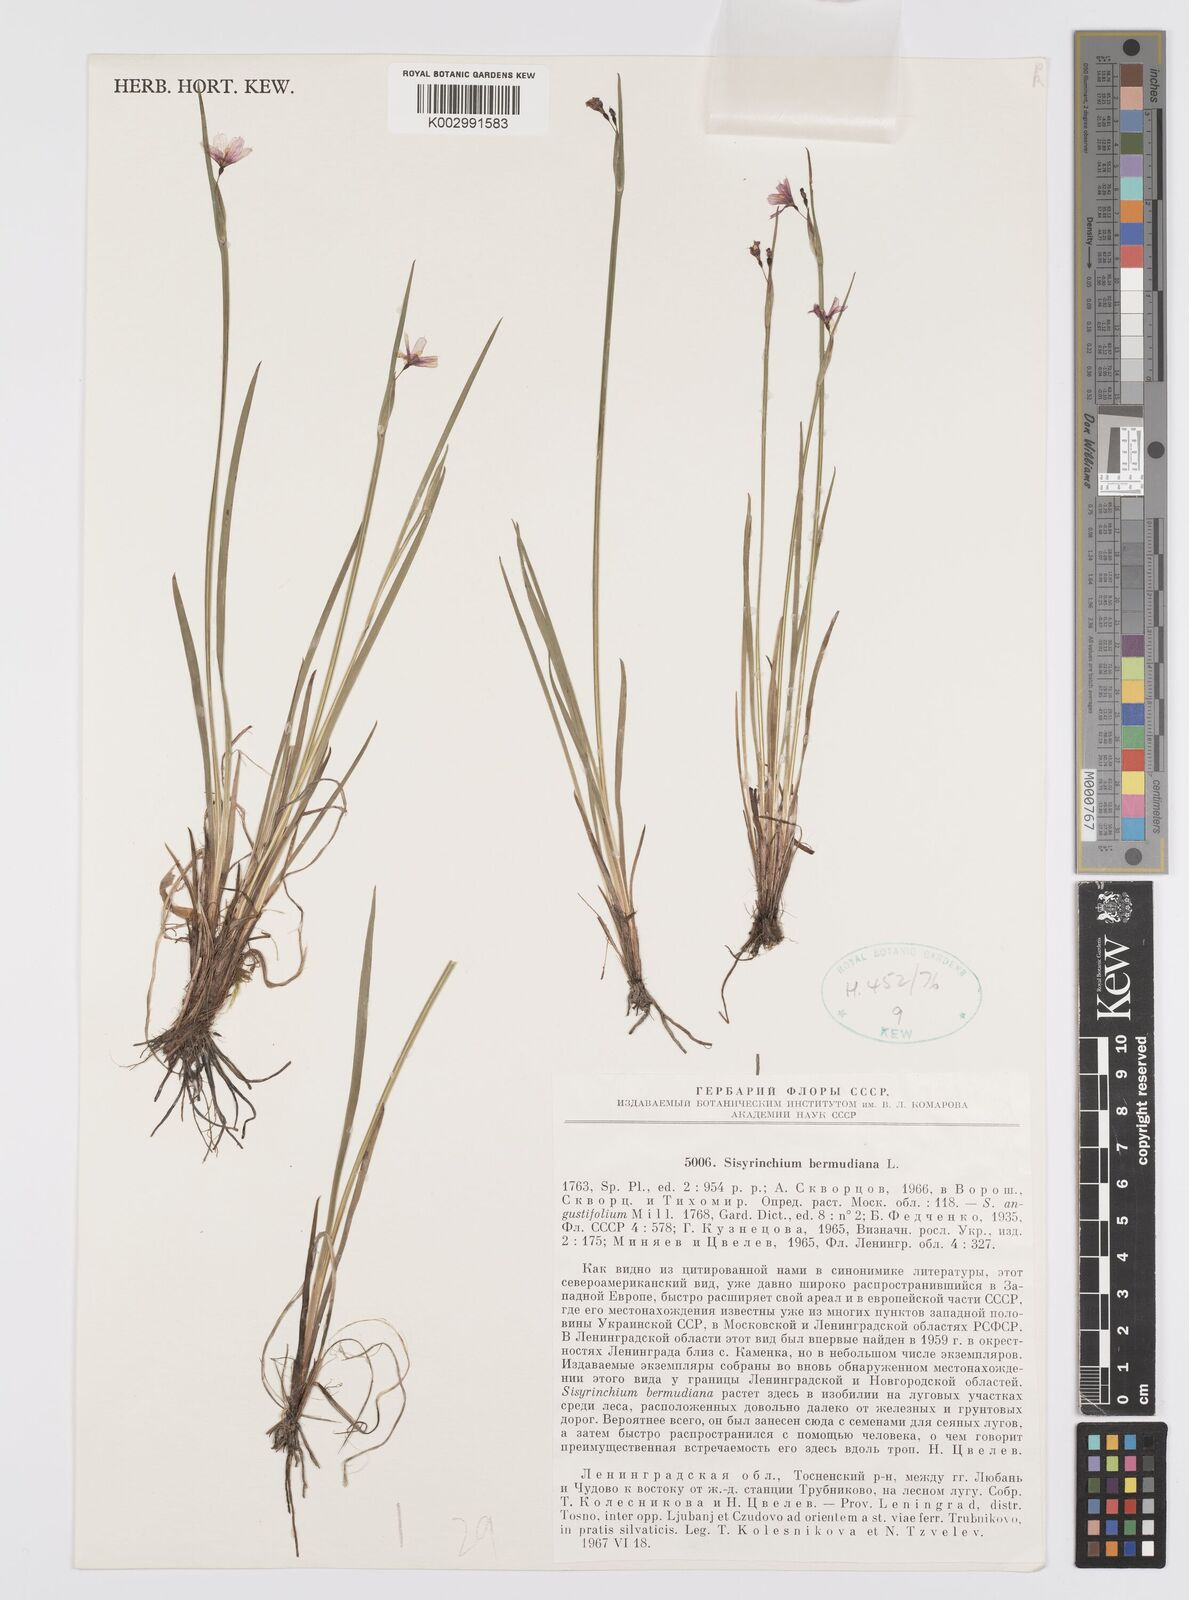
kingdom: Plantae
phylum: Tracheophyta
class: Liliopsida
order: Asparagales
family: Iridaceae
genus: Sisyrinchium
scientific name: Sisyrinchium angustifolium
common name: Narrow-leaf blue-eyed-grass
